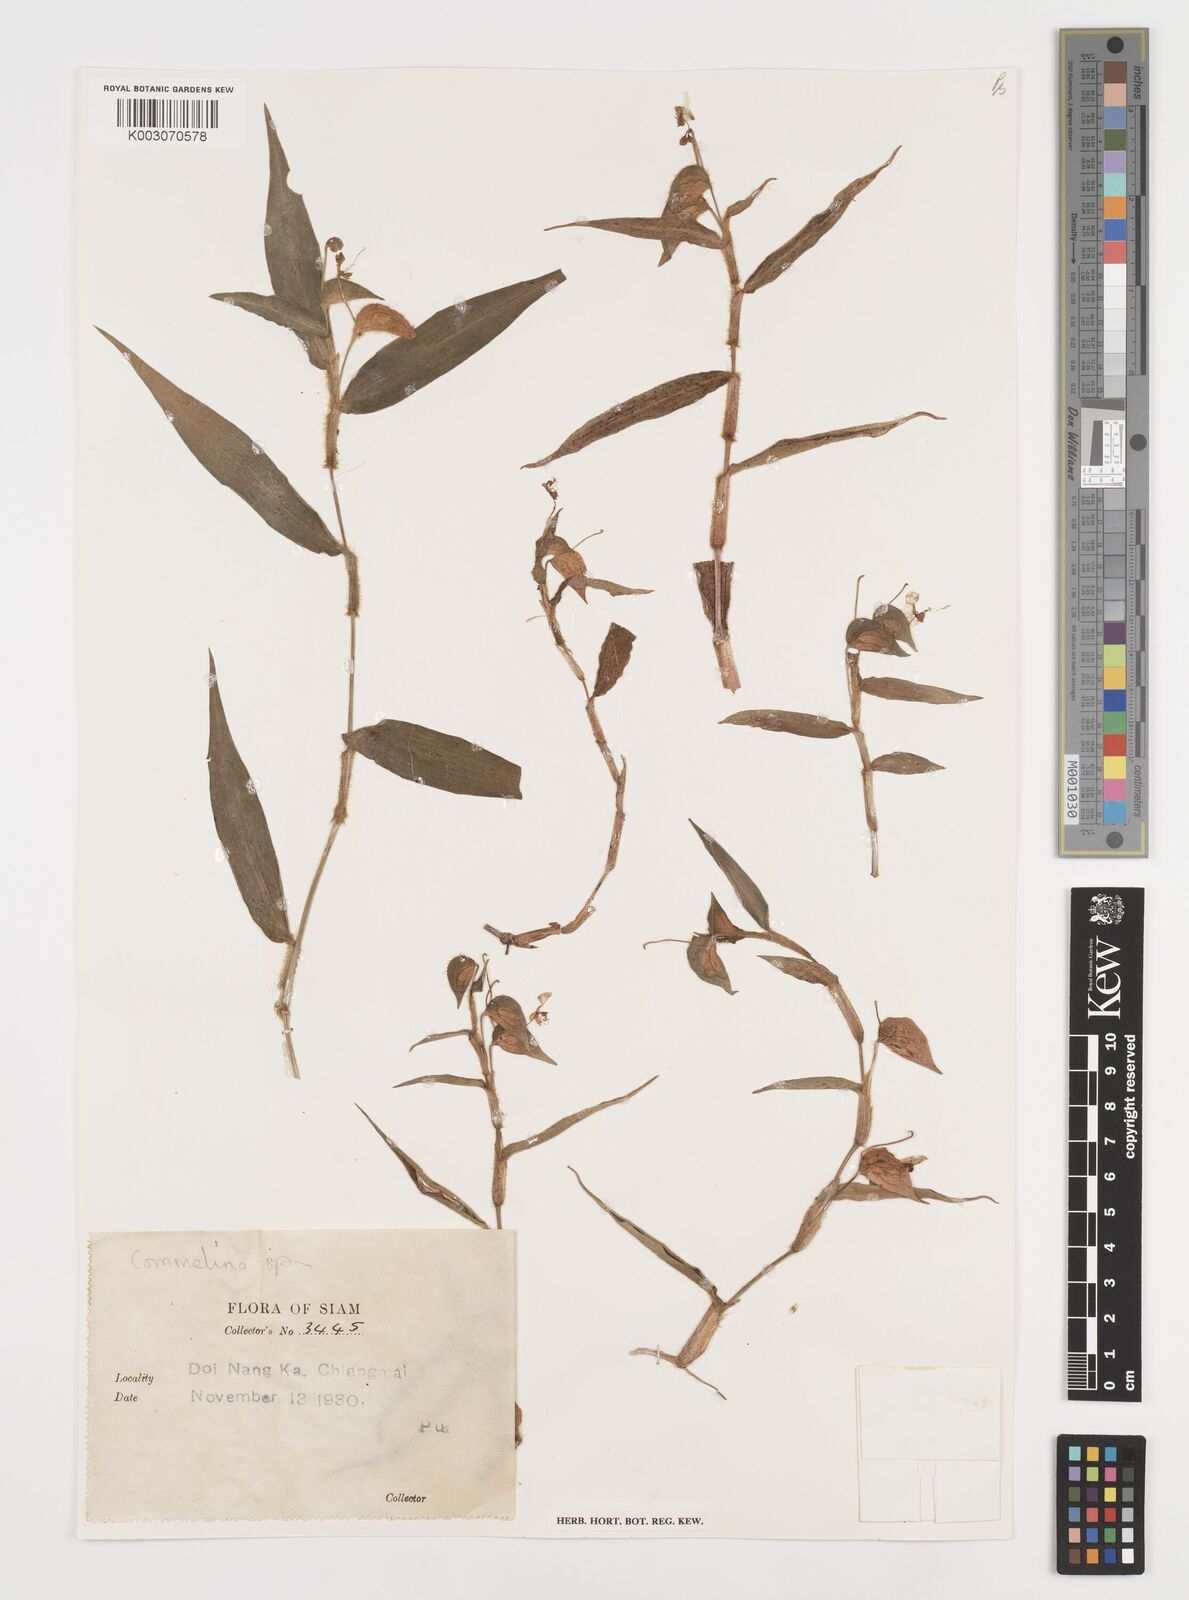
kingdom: Plantae
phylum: Tracheophyta
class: Liliopsida
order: Commelinales
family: Commelinaceae
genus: Commelina
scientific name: Commelina clavata
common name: Willow leaved dayflower
